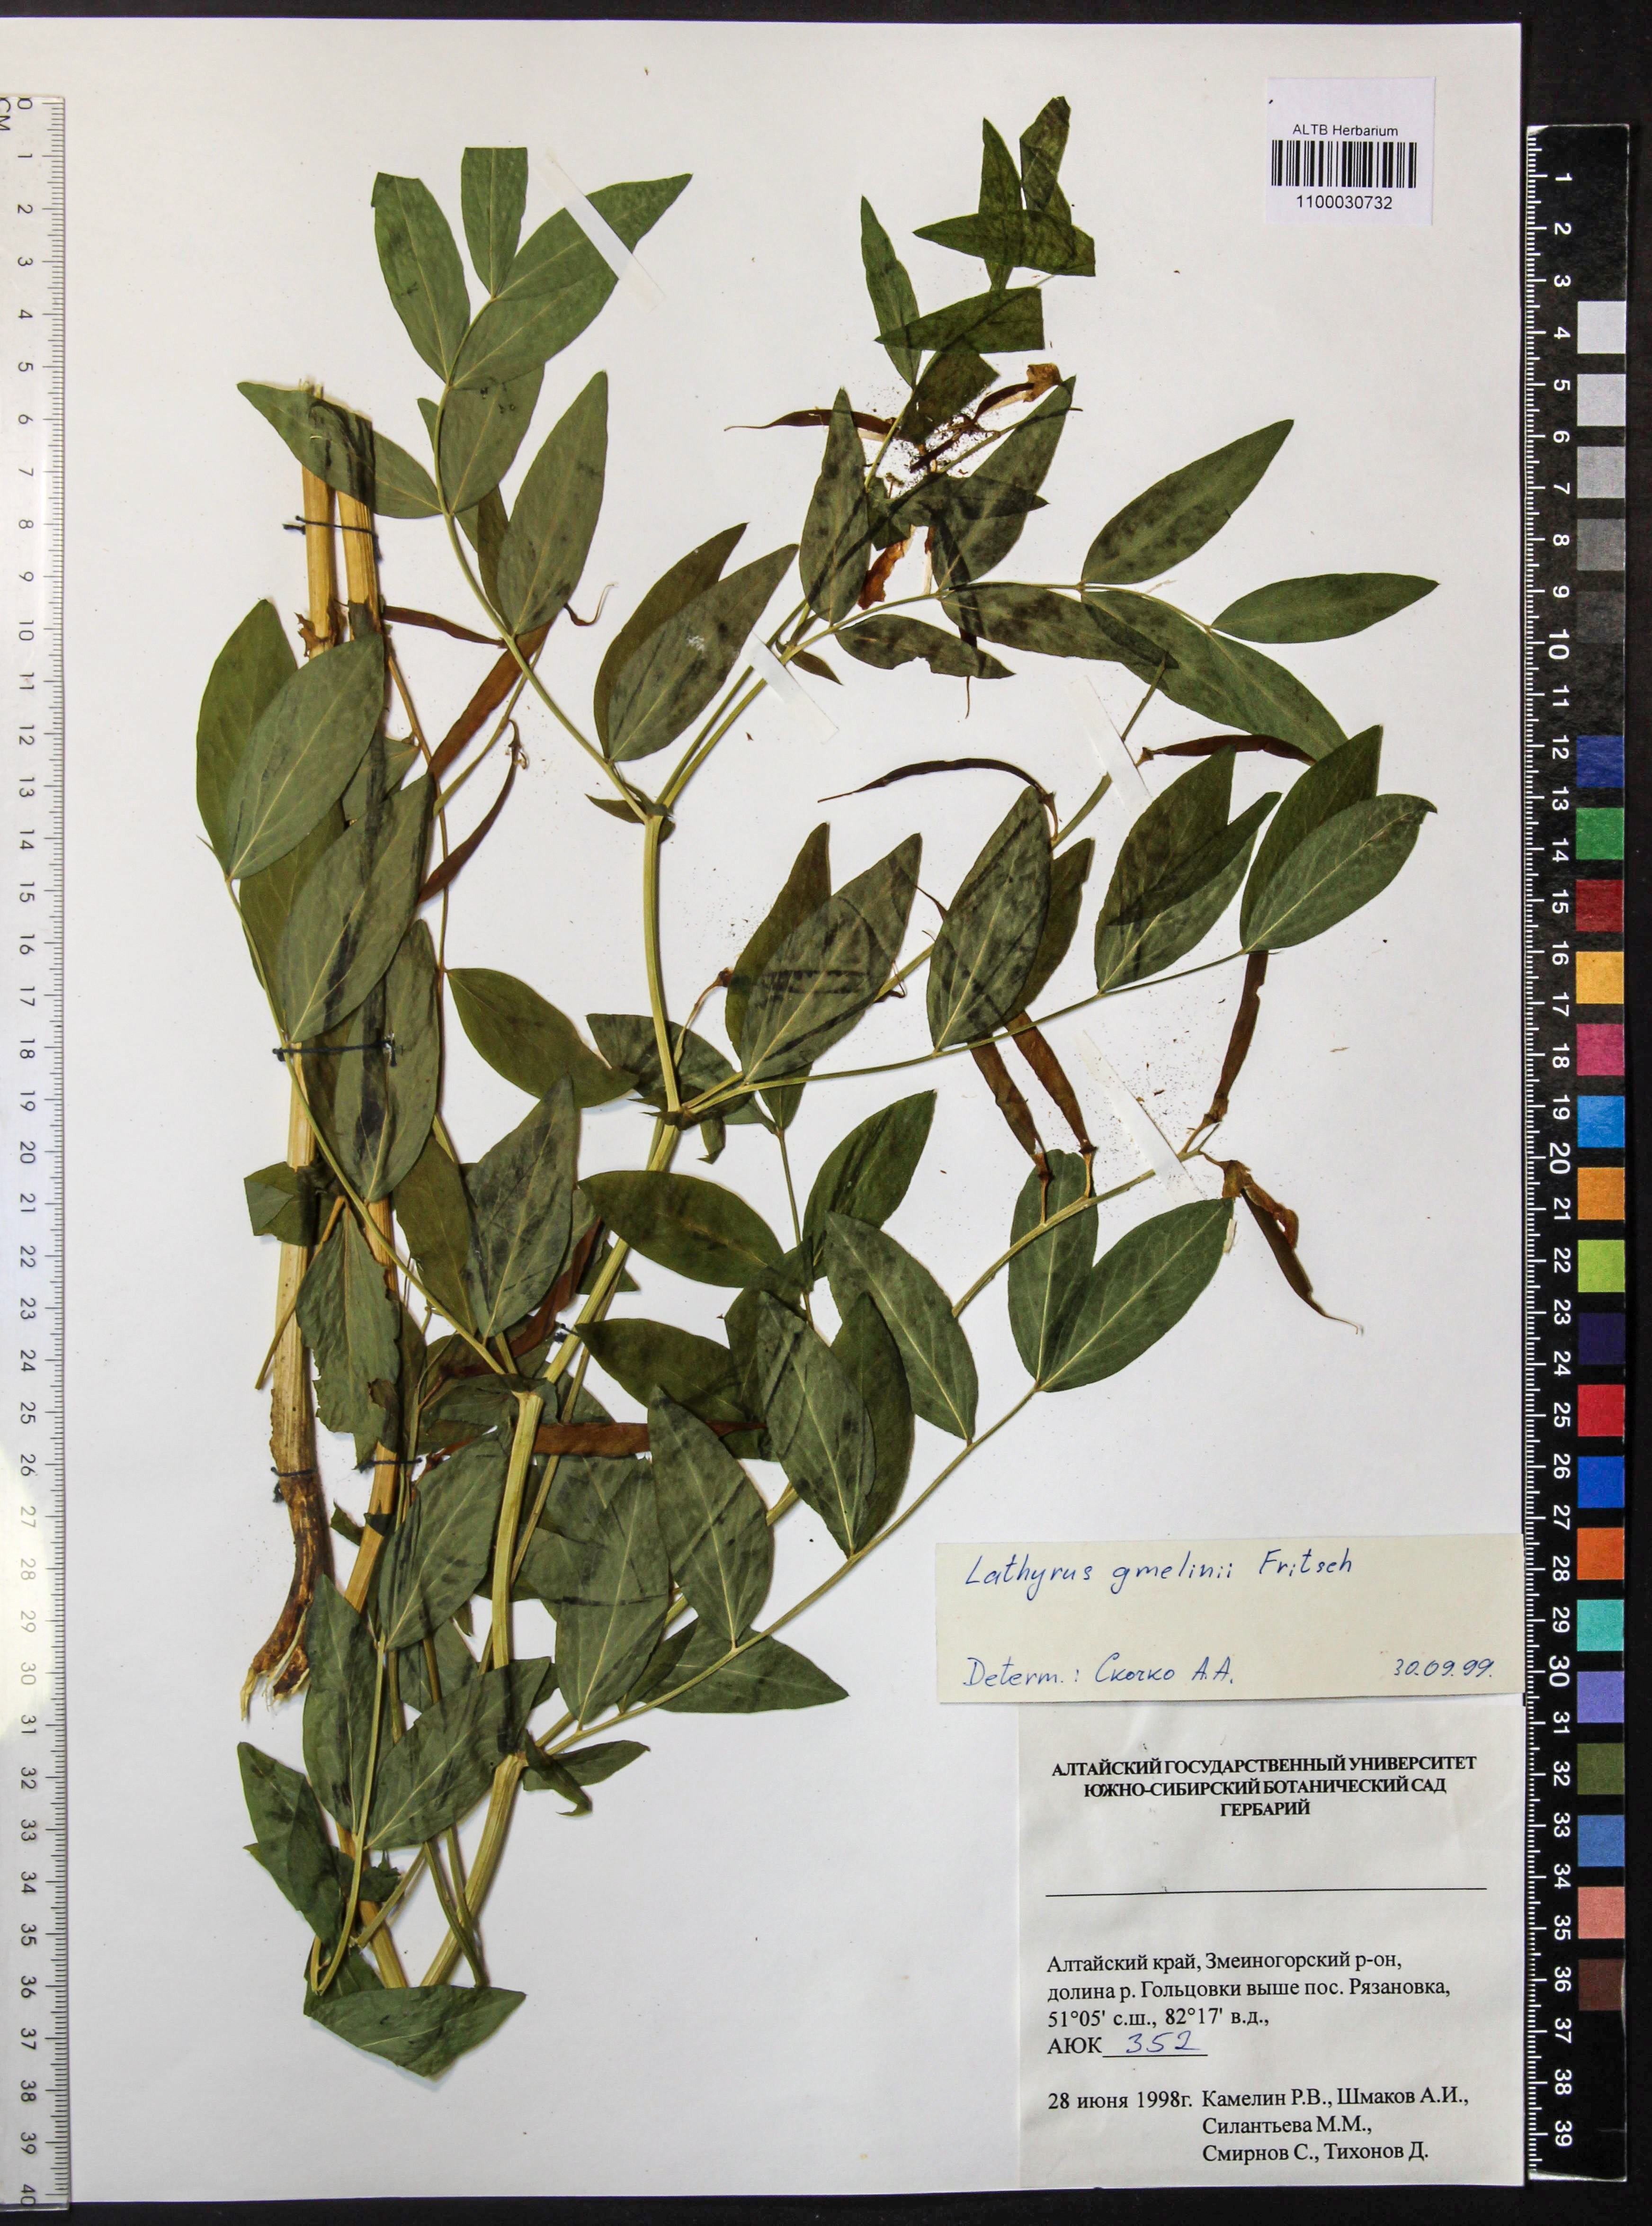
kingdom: Plantae
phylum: Tracheophyta
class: Magnoliopsida
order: Fabales
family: Fabaceae
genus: Lathyrus
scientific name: Lathyrus gmelinii
